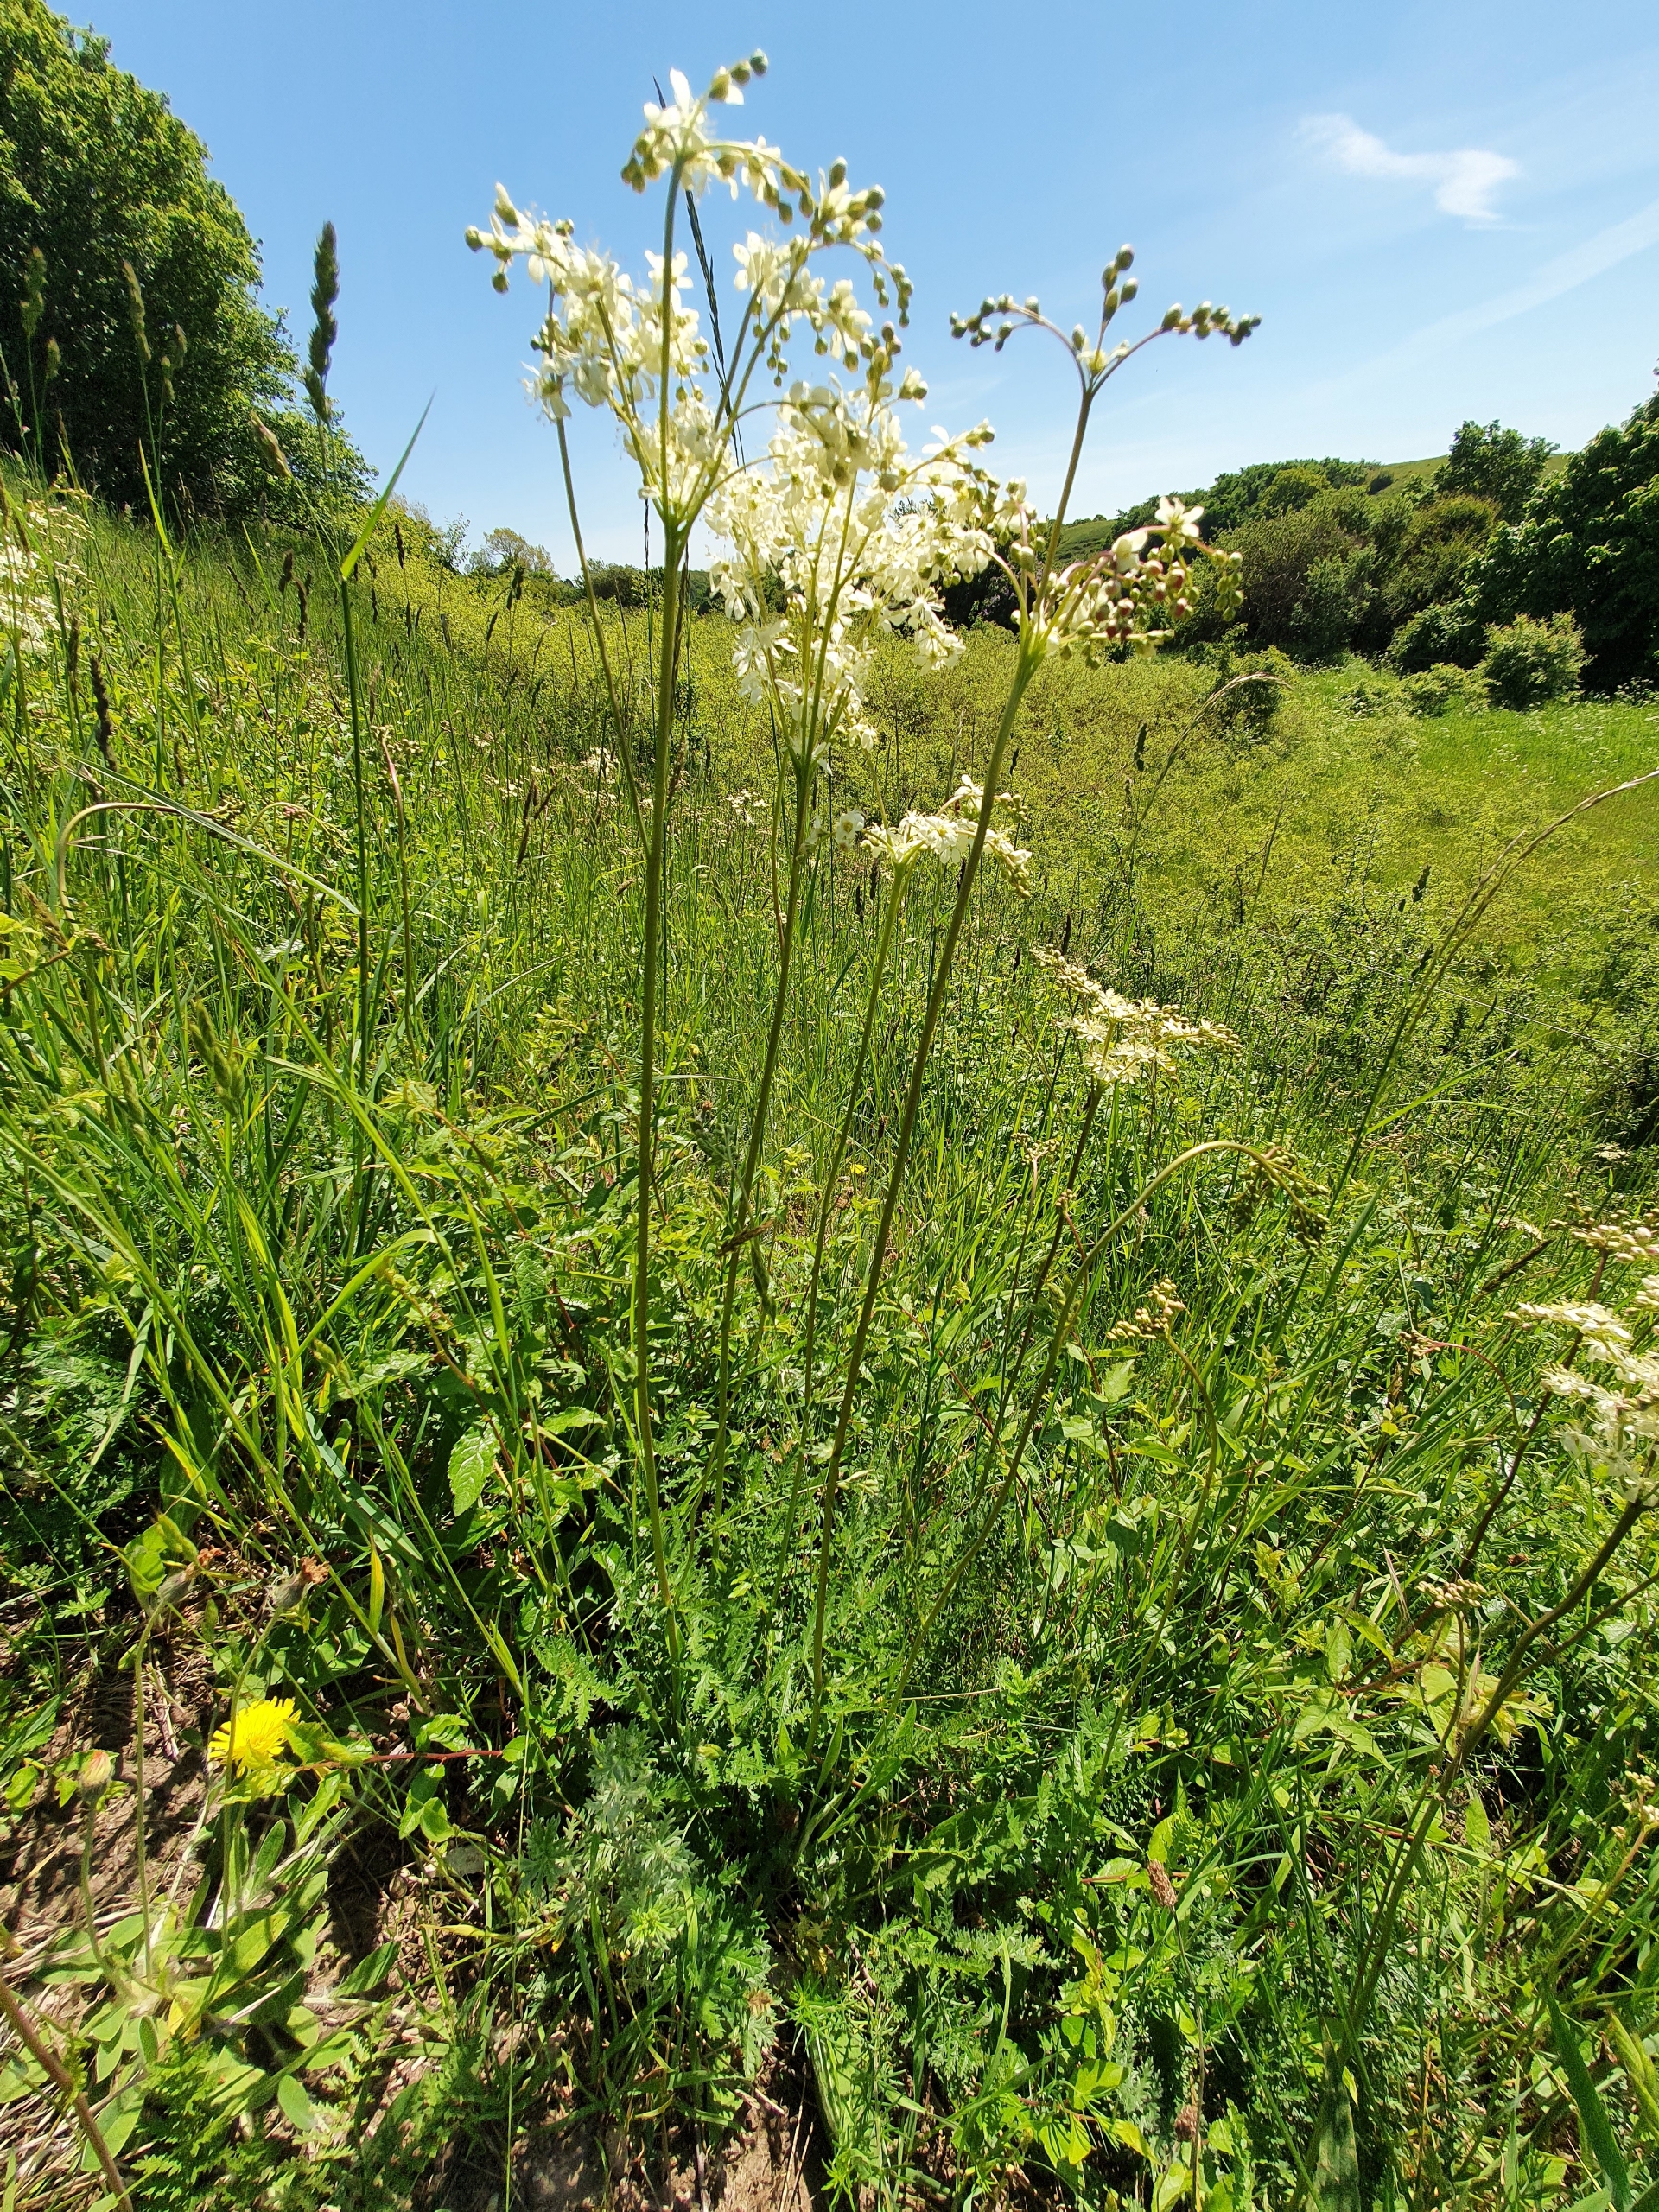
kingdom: Plantae
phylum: Tracheophyta
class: Magnoliopsida
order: Rosales
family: Rosaceae
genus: Filipendula
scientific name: Filipendula vulgaris
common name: Knoldet mjødurt
